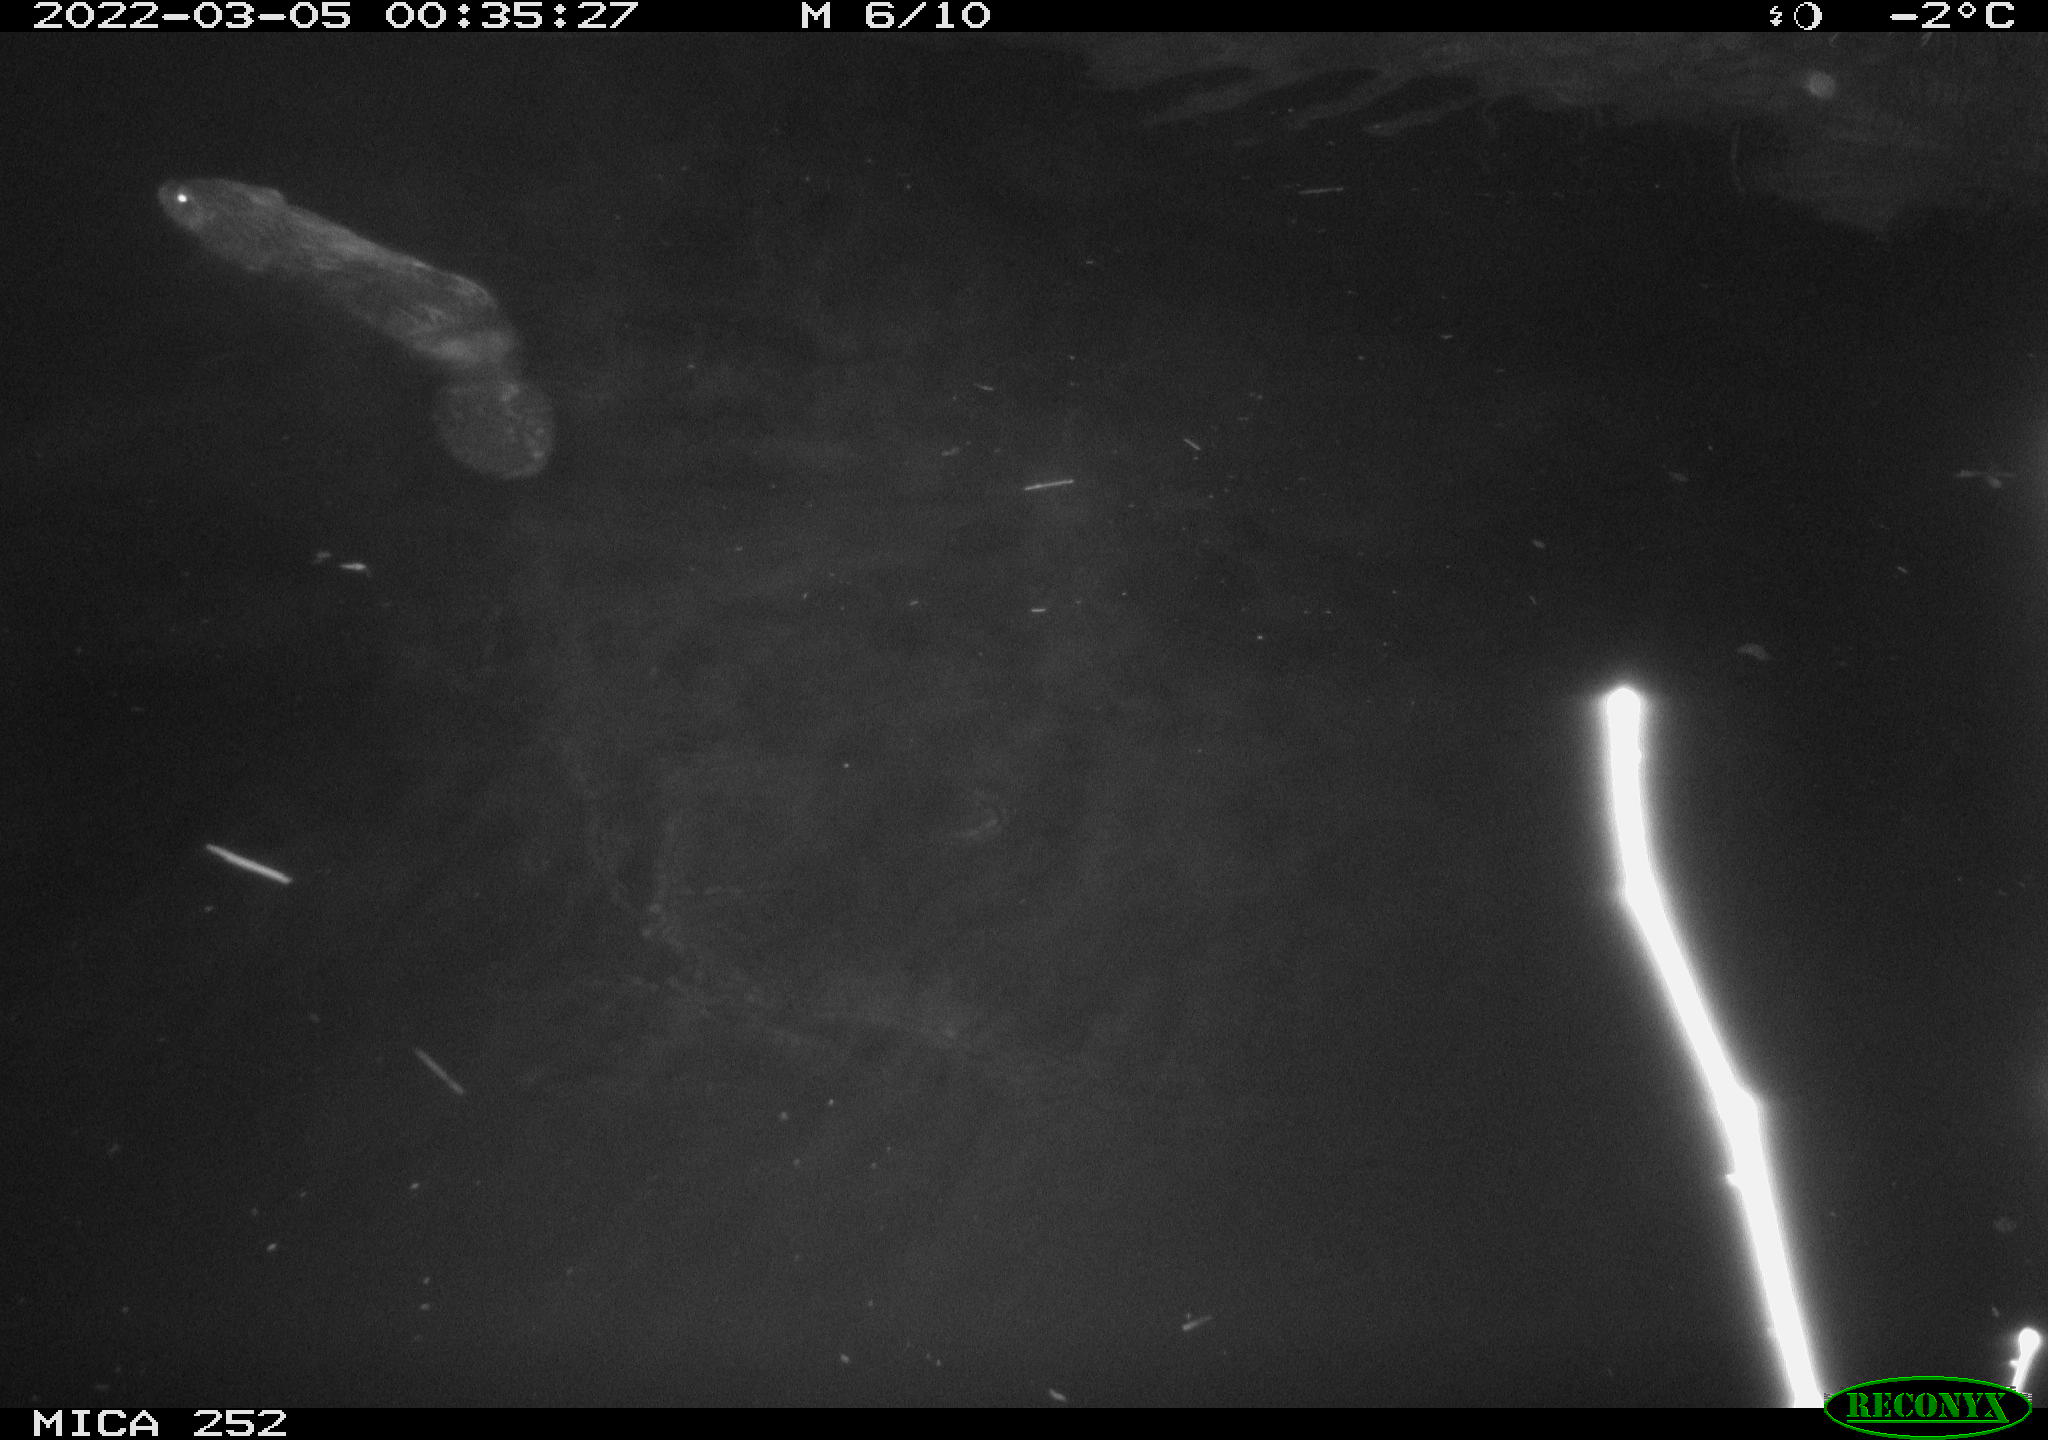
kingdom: Animalia
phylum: Chordata
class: Mammalia
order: Rodentia
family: Castoridae
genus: Castor
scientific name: Castor fiber
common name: Eurasian beaver
